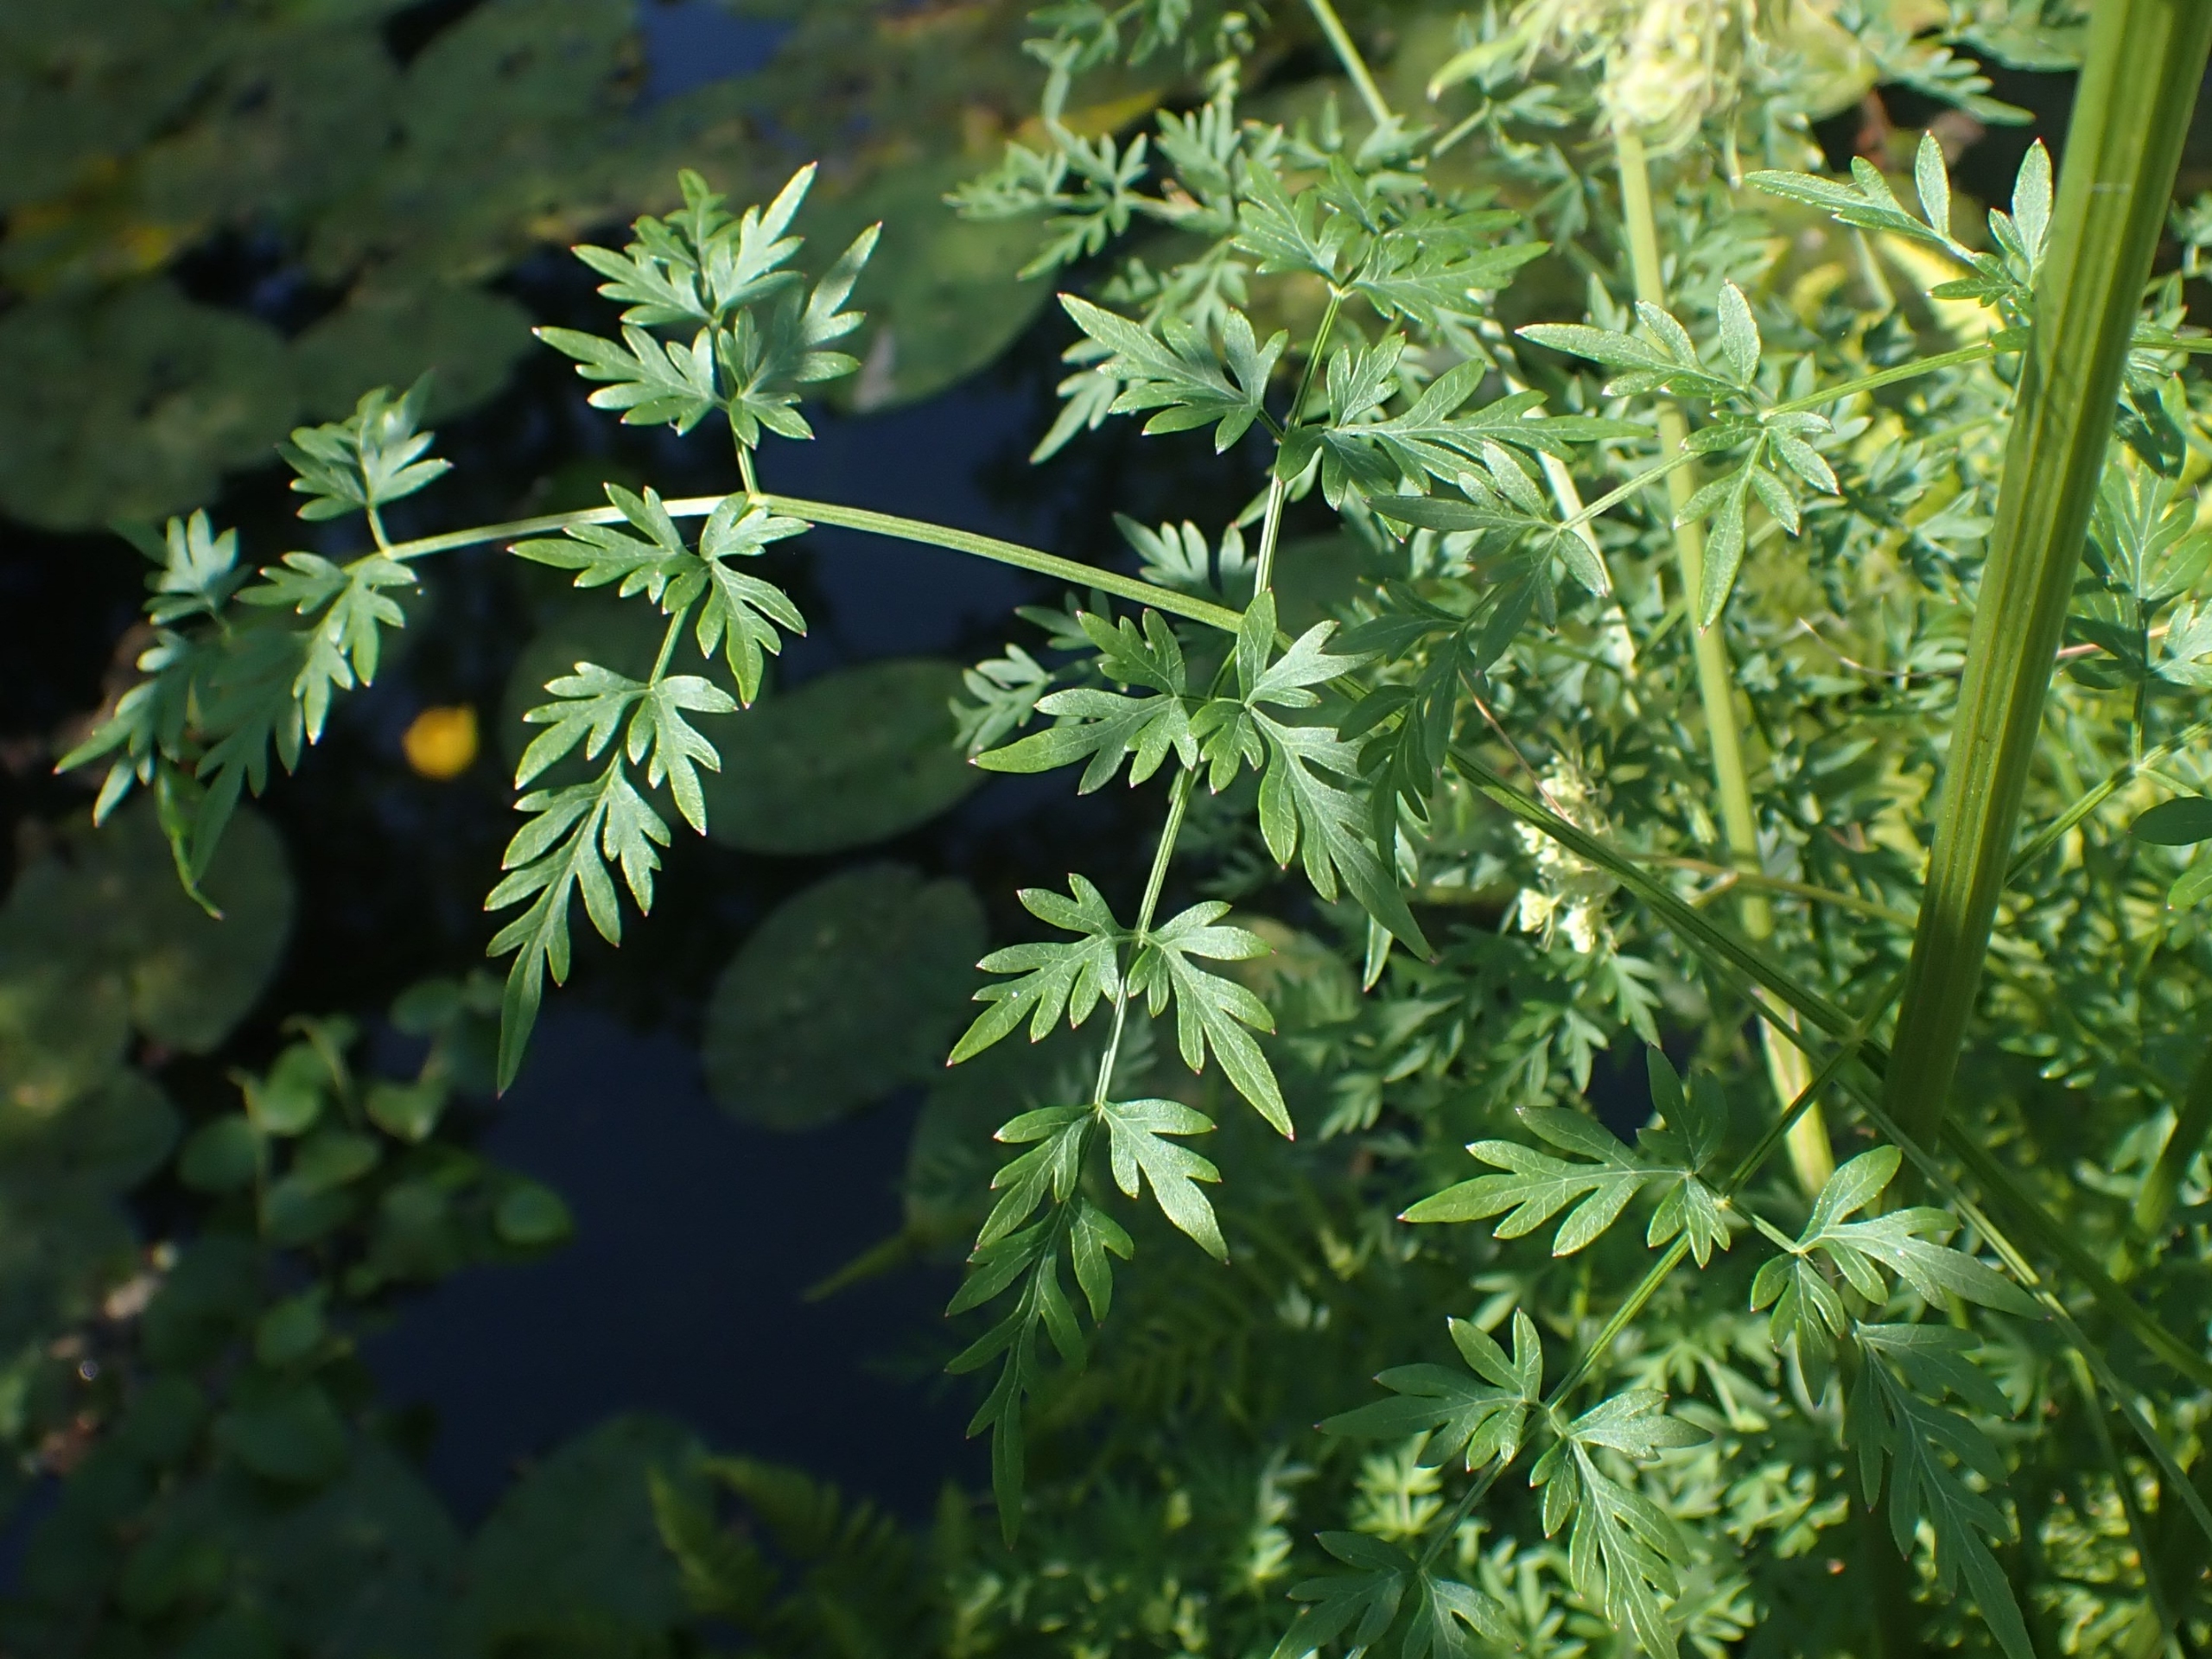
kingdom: Plantae
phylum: Tracheophyta
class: Magnoliopsida
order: Apiales
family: Apiaceae
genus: Thysselinum
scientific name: Thysselinum palustre
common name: Kær-svovlrod
